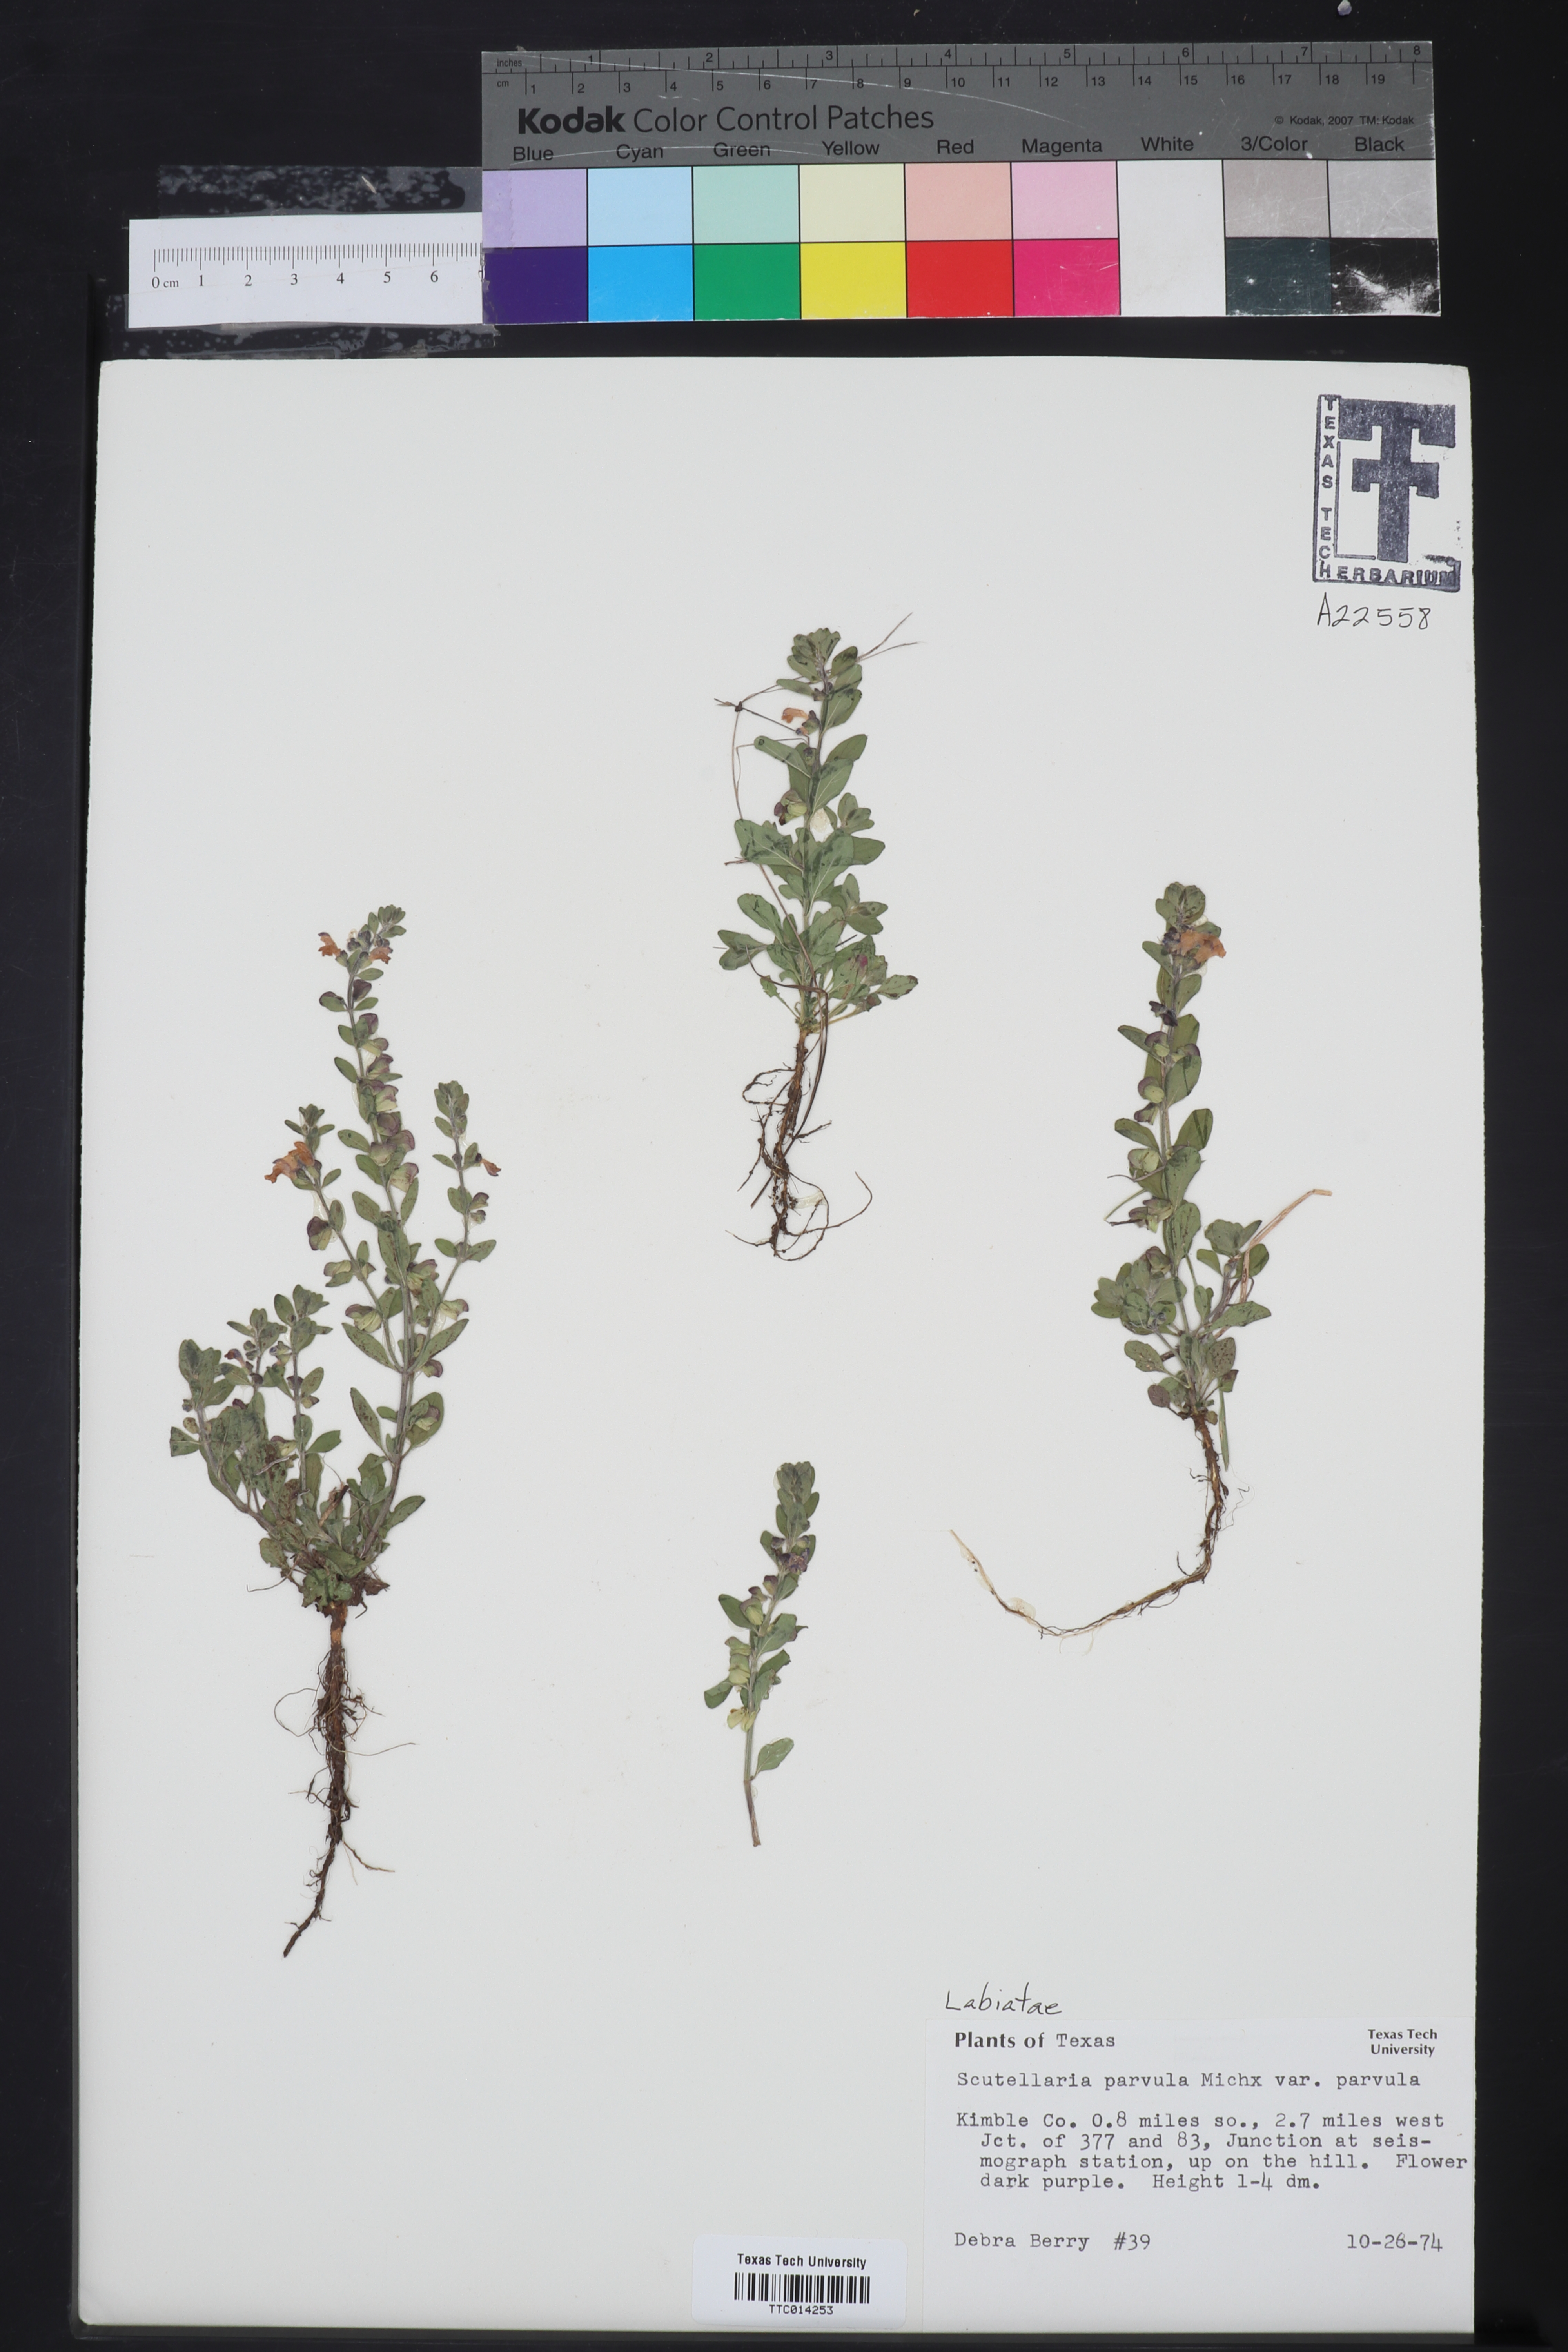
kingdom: Plantae
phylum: Tracheophyta
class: Magnoliopsida
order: Lamiales
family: Lamiaceae
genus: Scutellaria
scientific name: Scutellaria parvula
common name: Little scullcap
